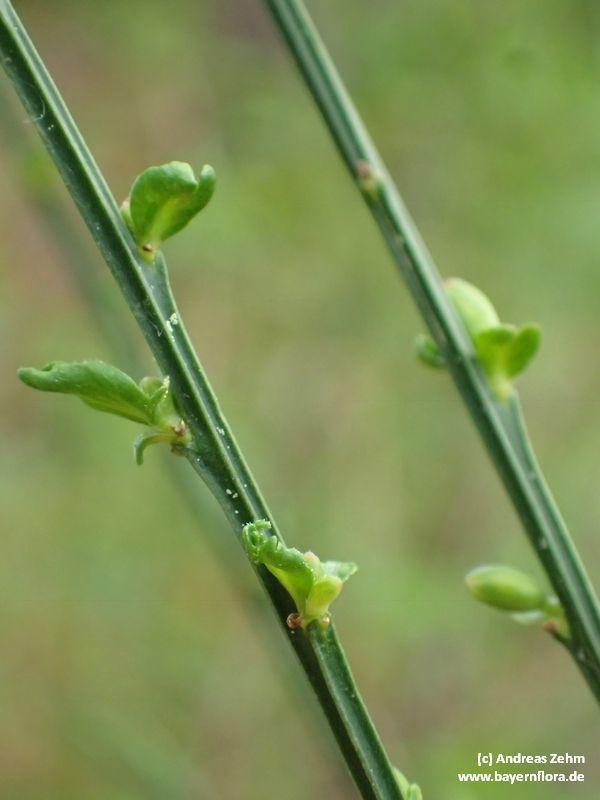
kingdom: Plantae
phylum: Tracheophyta
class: Magnoliopsida
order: Fabales
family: Fabaceae
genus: Cytisus
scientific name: Cytisus scoparius
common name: Scotch broom
